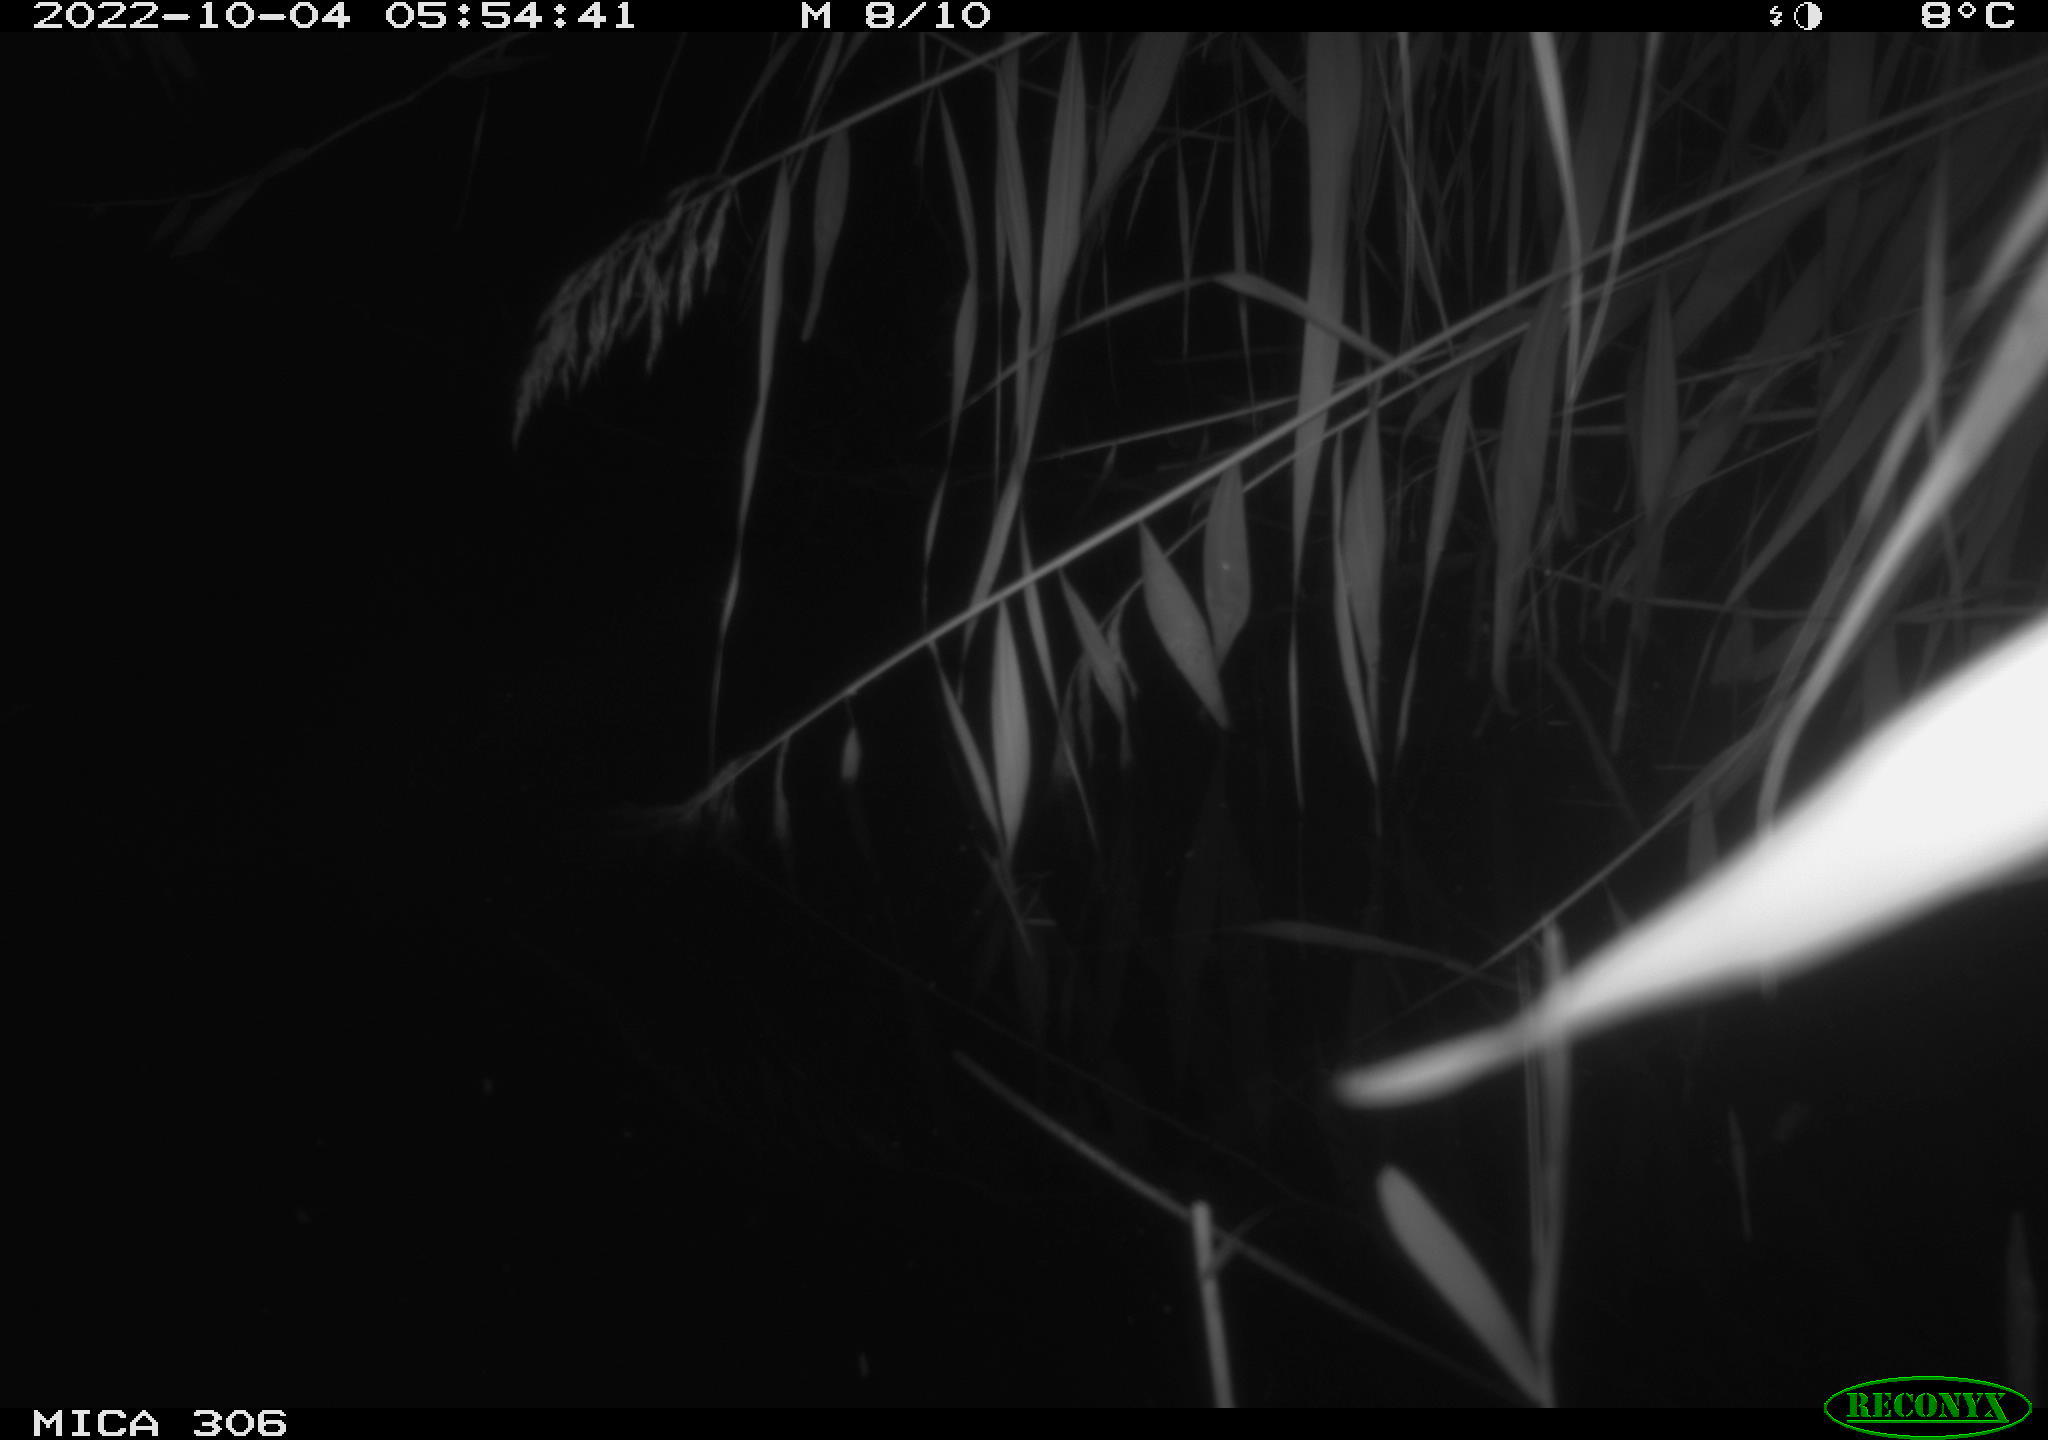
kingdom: Animalia
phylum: Chordata
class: Mammalia
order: Rodentia
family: Muridae
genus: Rattus
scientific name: Rattus norvegicus
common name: Brown rat
